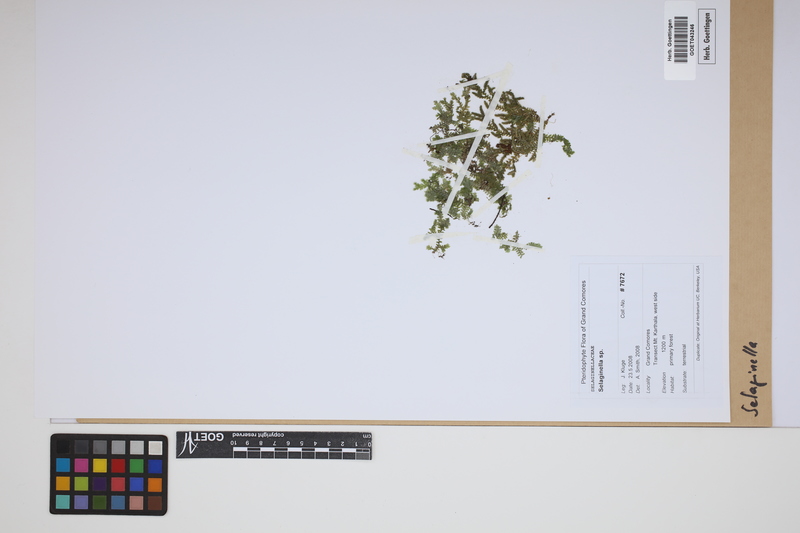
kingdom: Plantae
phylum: Tracheophyta
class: Lycopodiopsida
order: Selaginellales
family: Selaginellaceae
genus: Selaginella
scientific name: Selaginella
